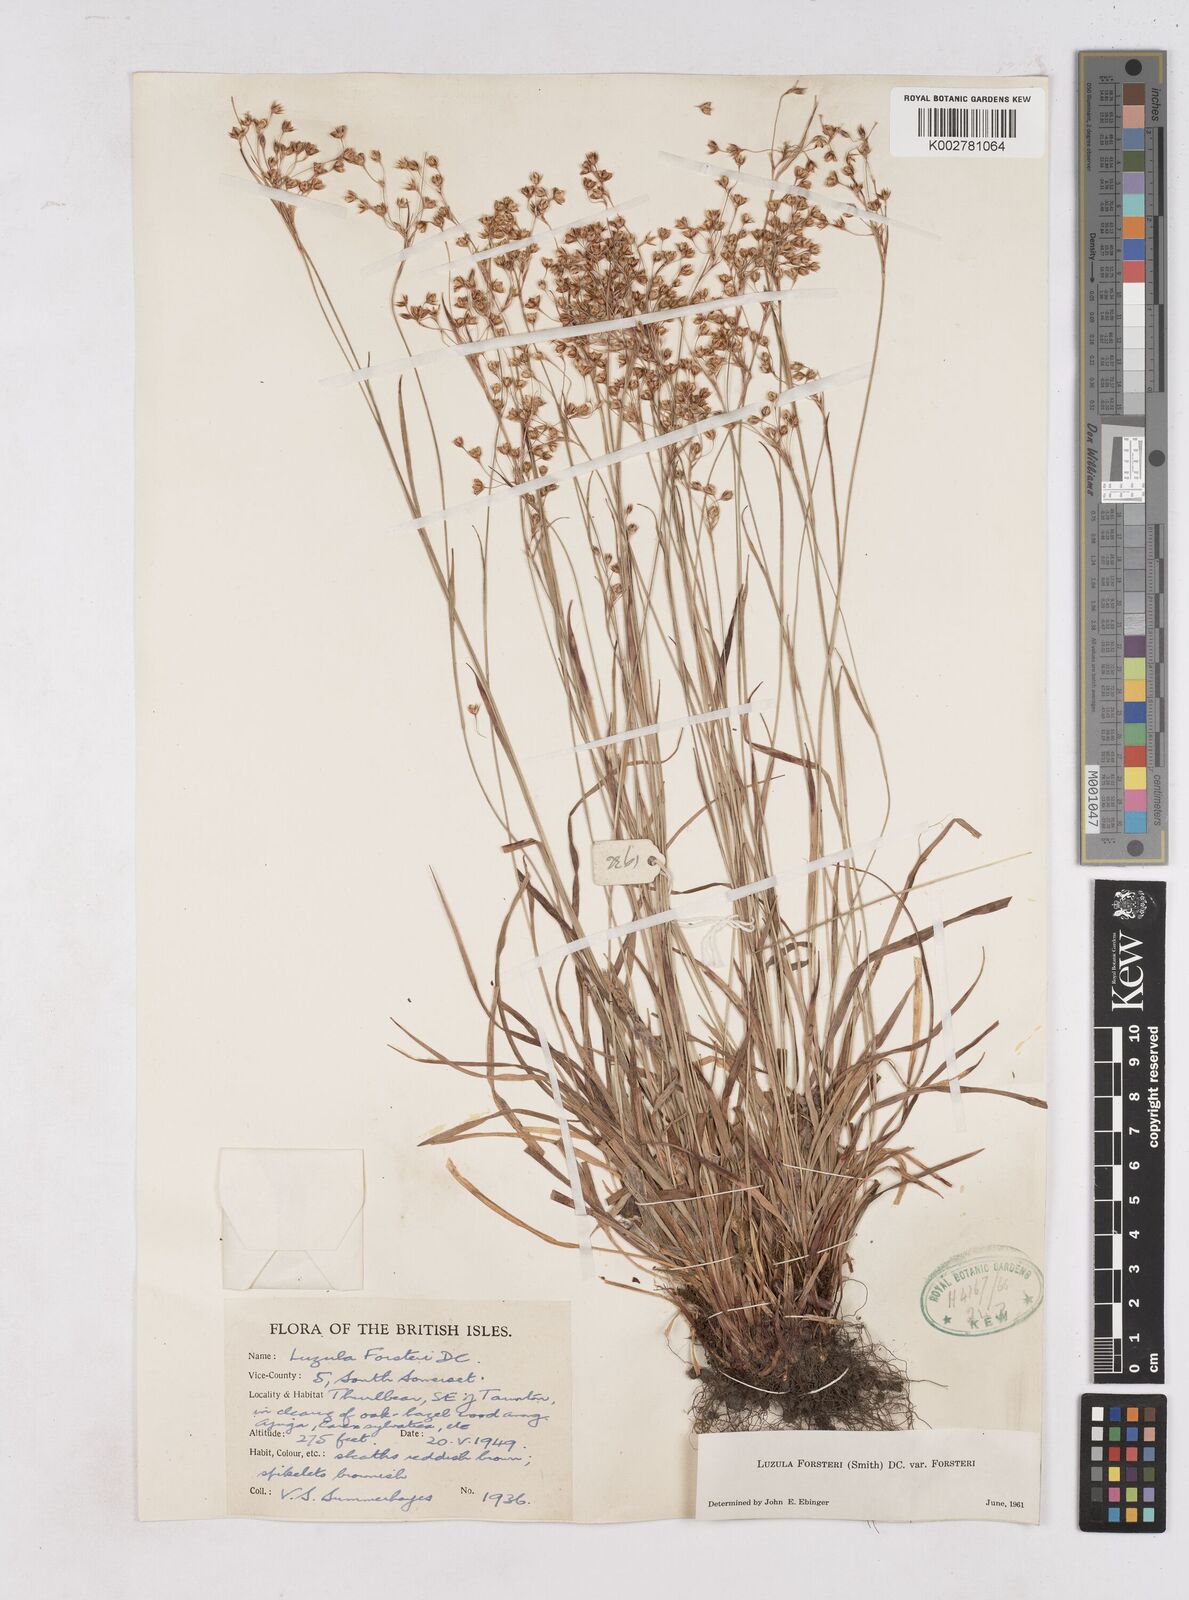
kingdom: Plantae
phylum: Tracheophyta
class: Liliopsida
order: Poales
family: Juncaceae
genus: Luzula
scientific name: Luzula forsteri
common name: Southern wood-rush
